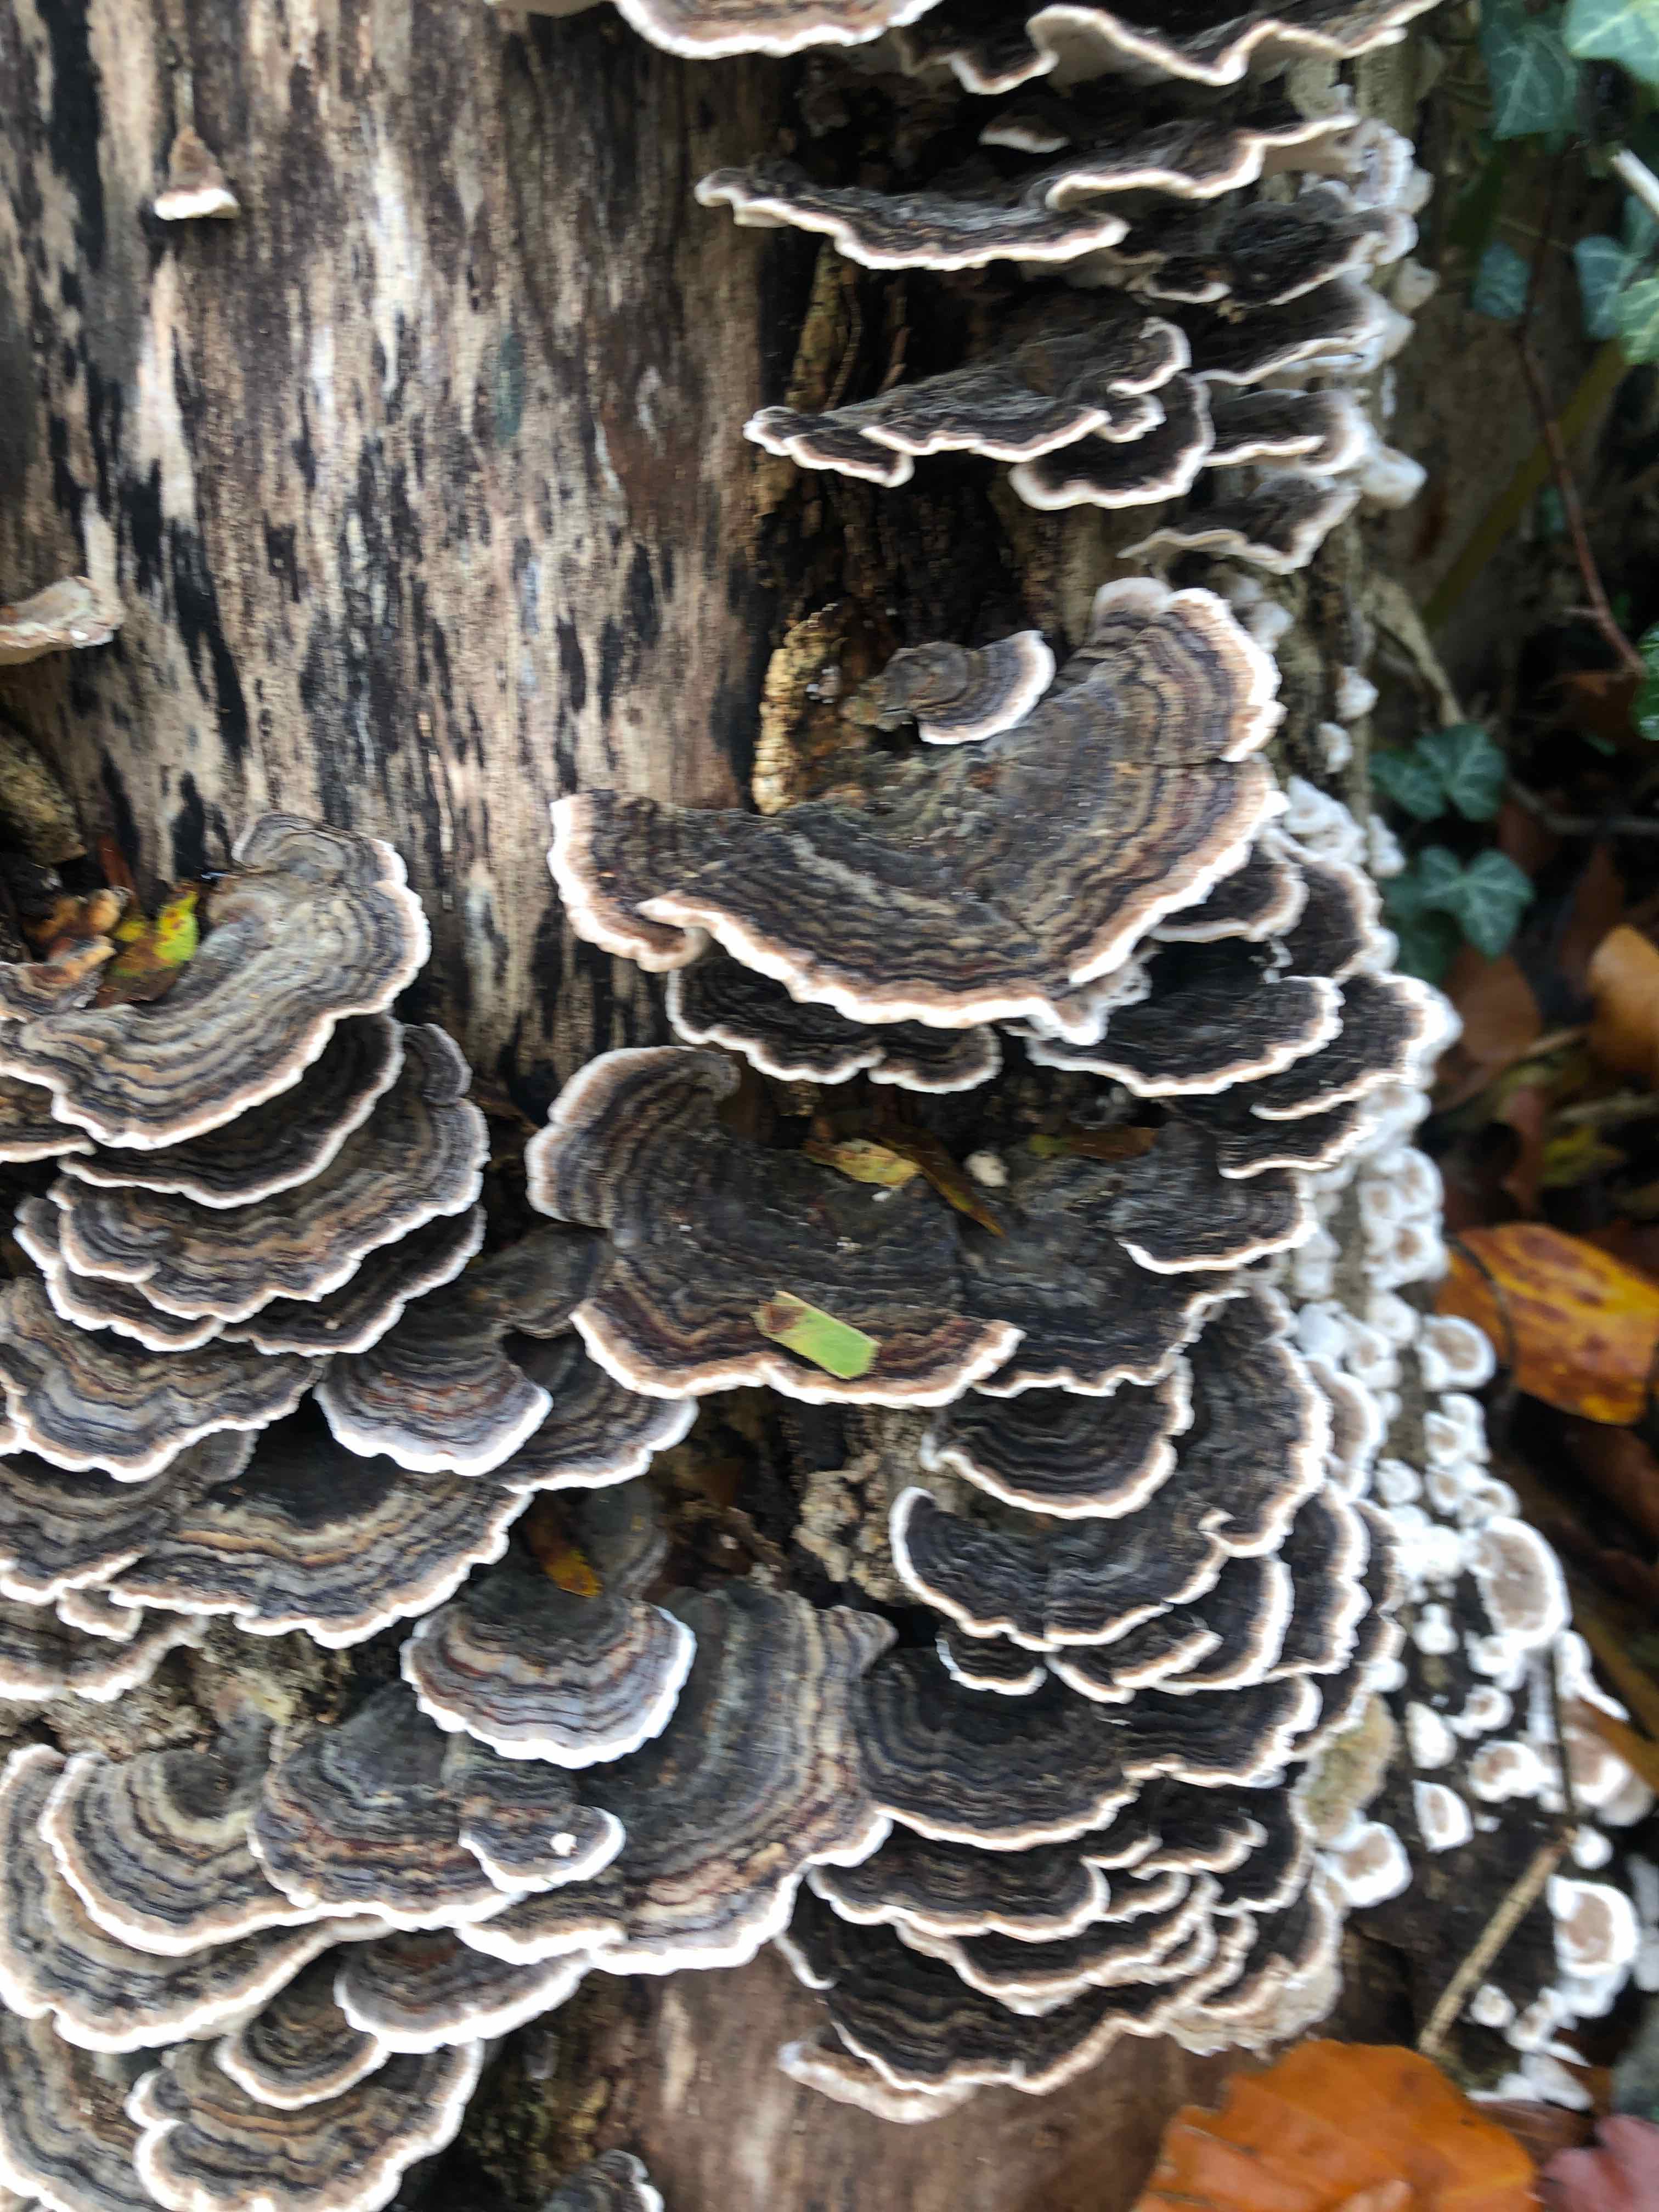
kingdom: Fungi
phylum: Basidiomycota
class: Agaricomycetes
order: Polyporales
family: Polyporaceae
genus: Trametes
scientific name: Trametes versicolor
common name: broget læderporesvamp
